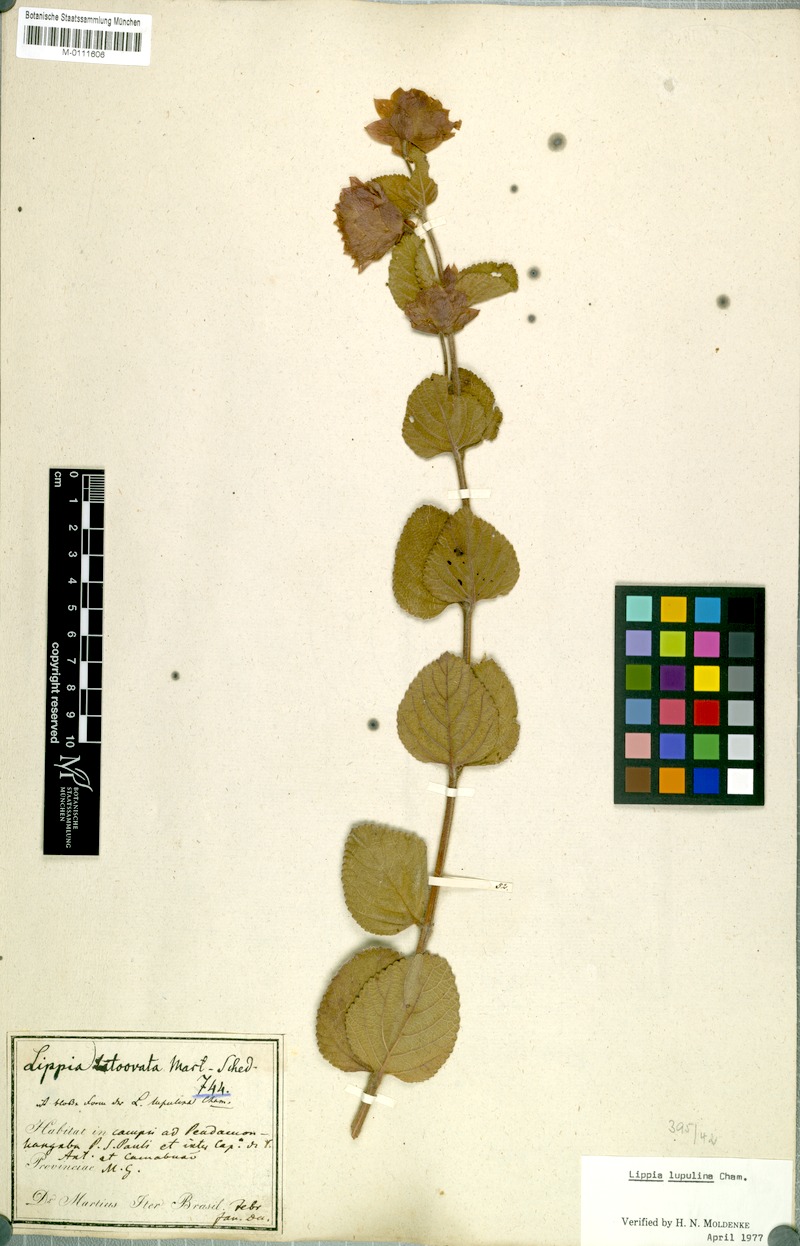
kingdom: Plantae
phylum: Tracheophyta
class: Magnoliopsida
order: Lamiales
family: Verbenaceae
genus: Lippia
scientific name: Lippia lupulina
